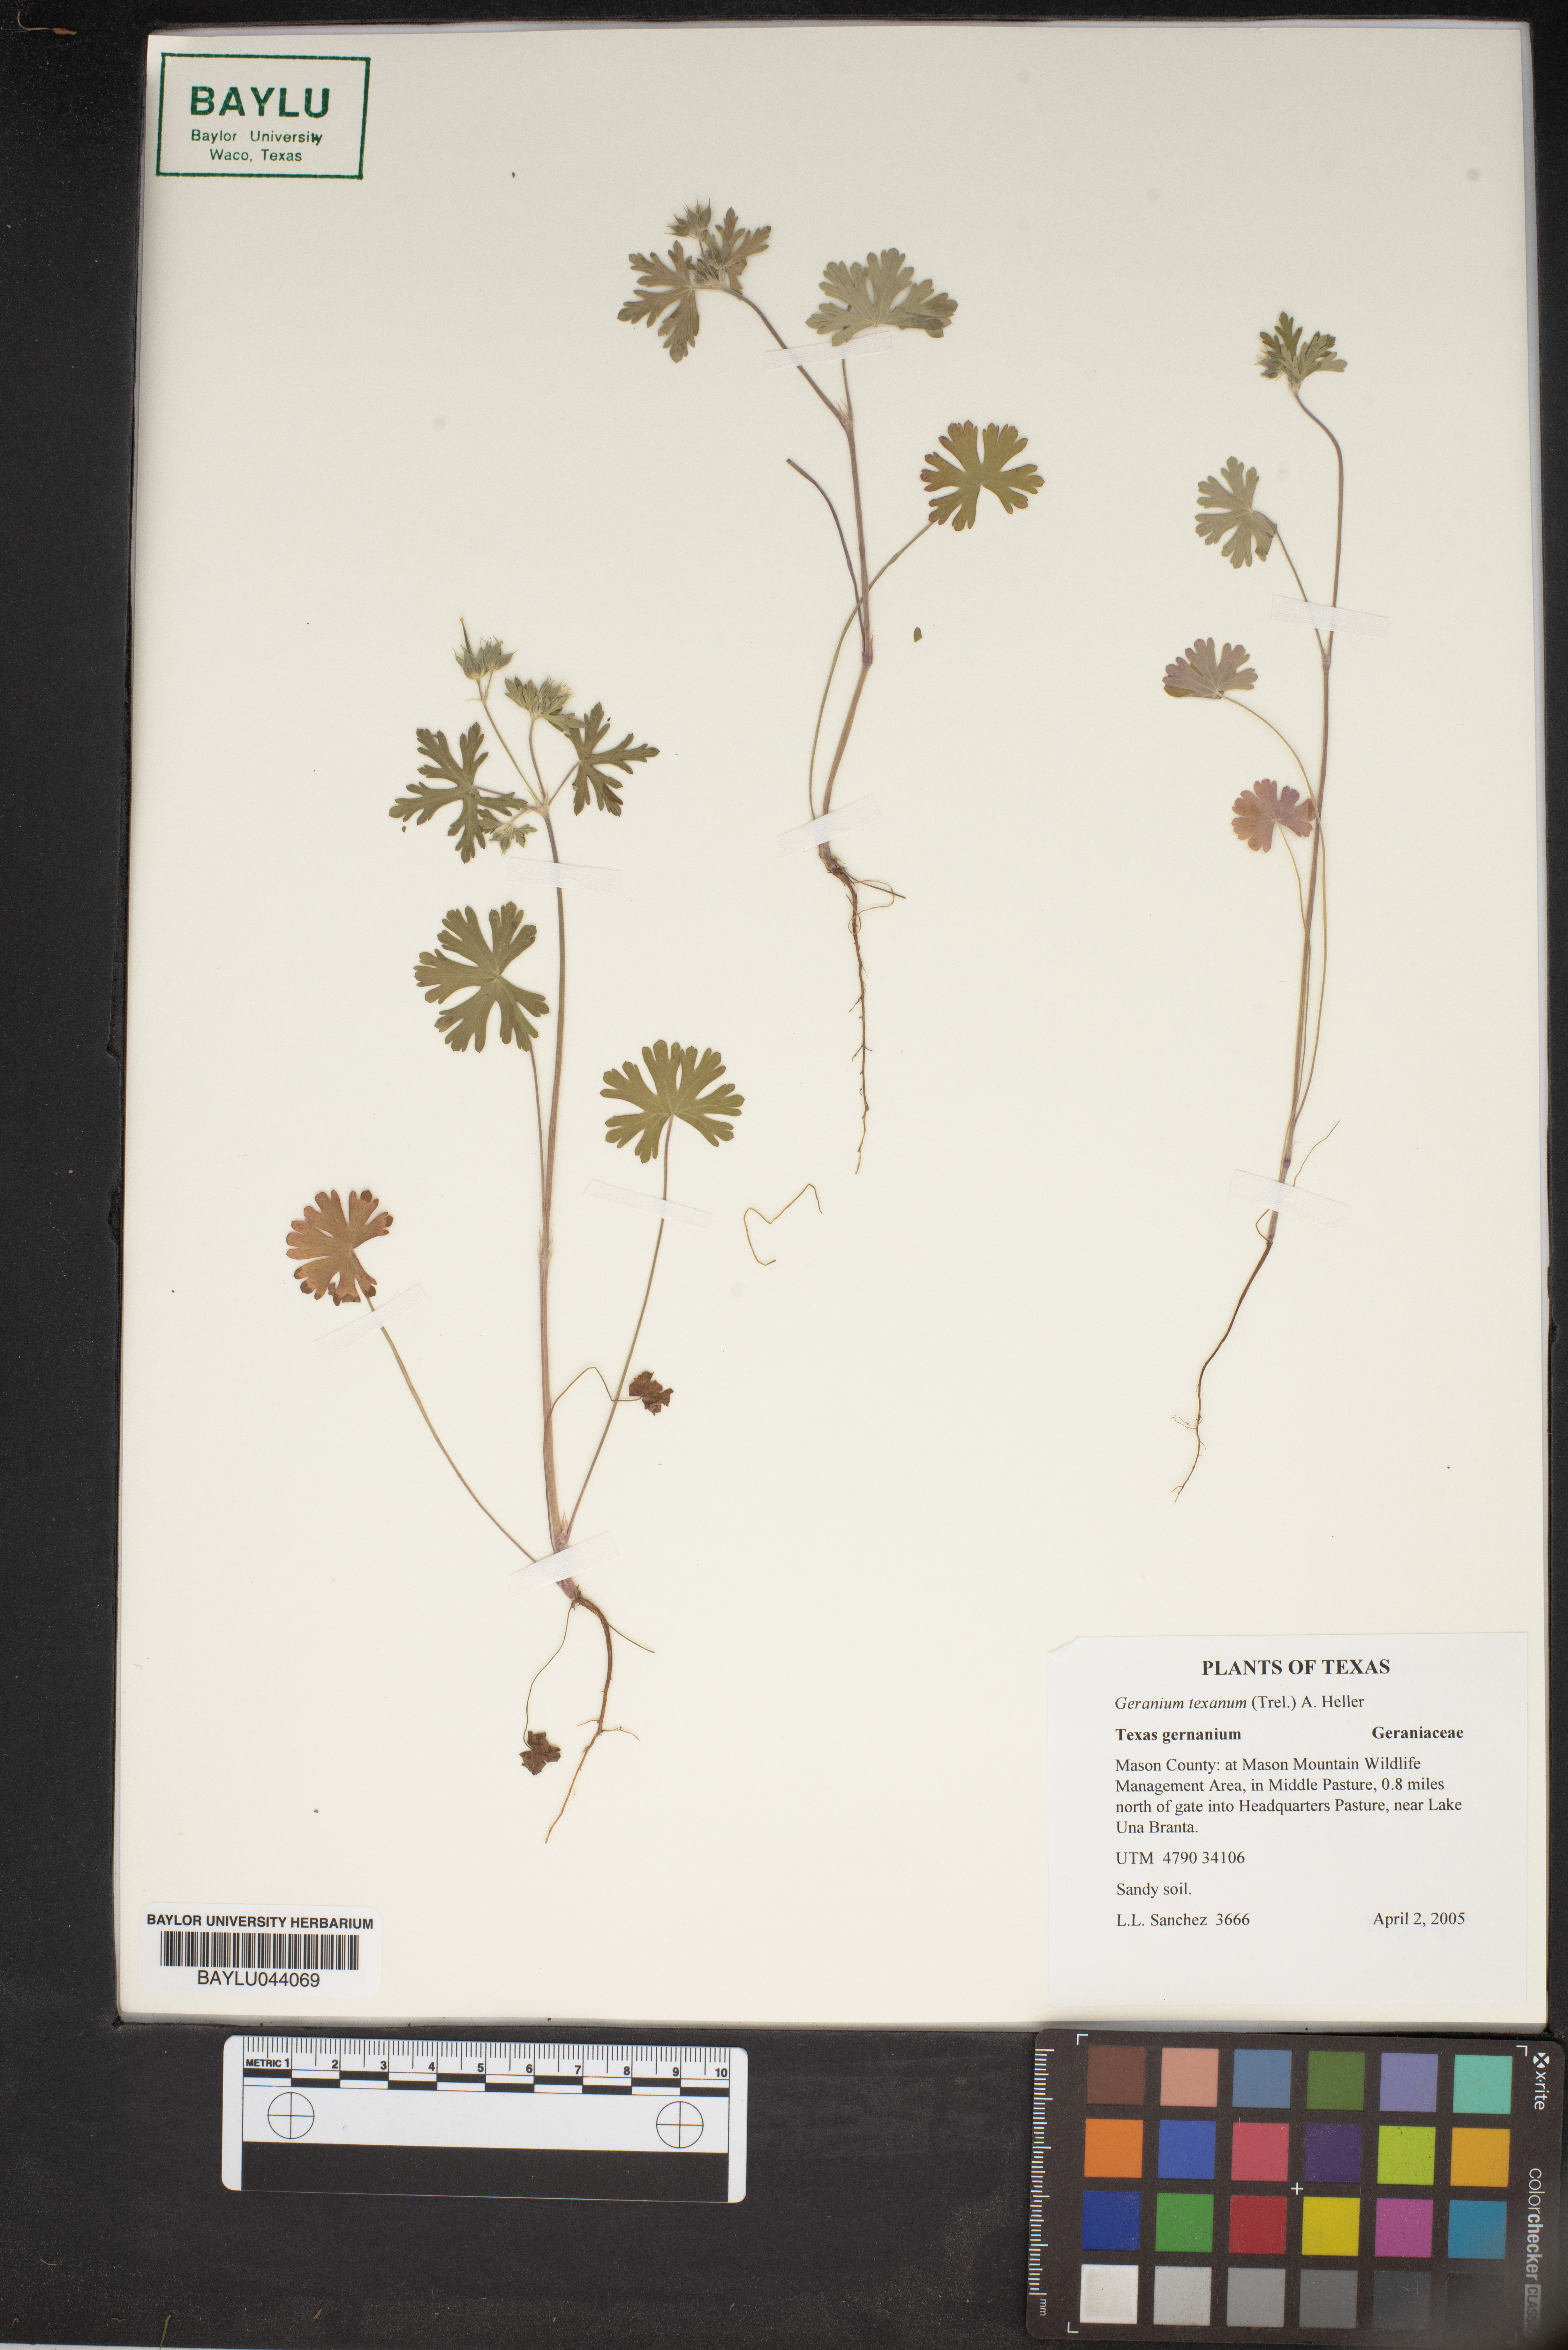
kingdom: Plantae
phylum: Tracheophyta
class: Magnoliopsida
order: Geraniales
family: Geraniaceae
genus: Geranium
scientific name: Geranium texanum
